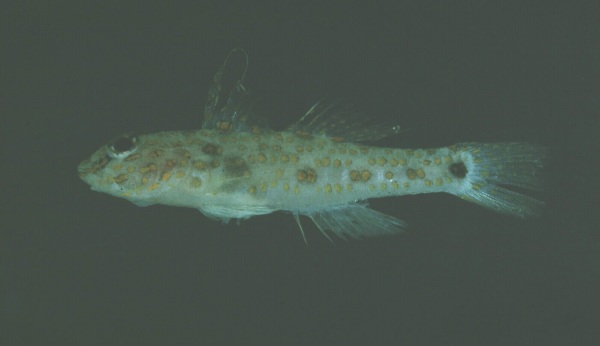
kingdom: Animalia
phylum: Chordata
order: Perciformes
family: Gobiidae
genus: Fusigobius
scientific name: Fusigobius longispinus
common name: Longspine goby
